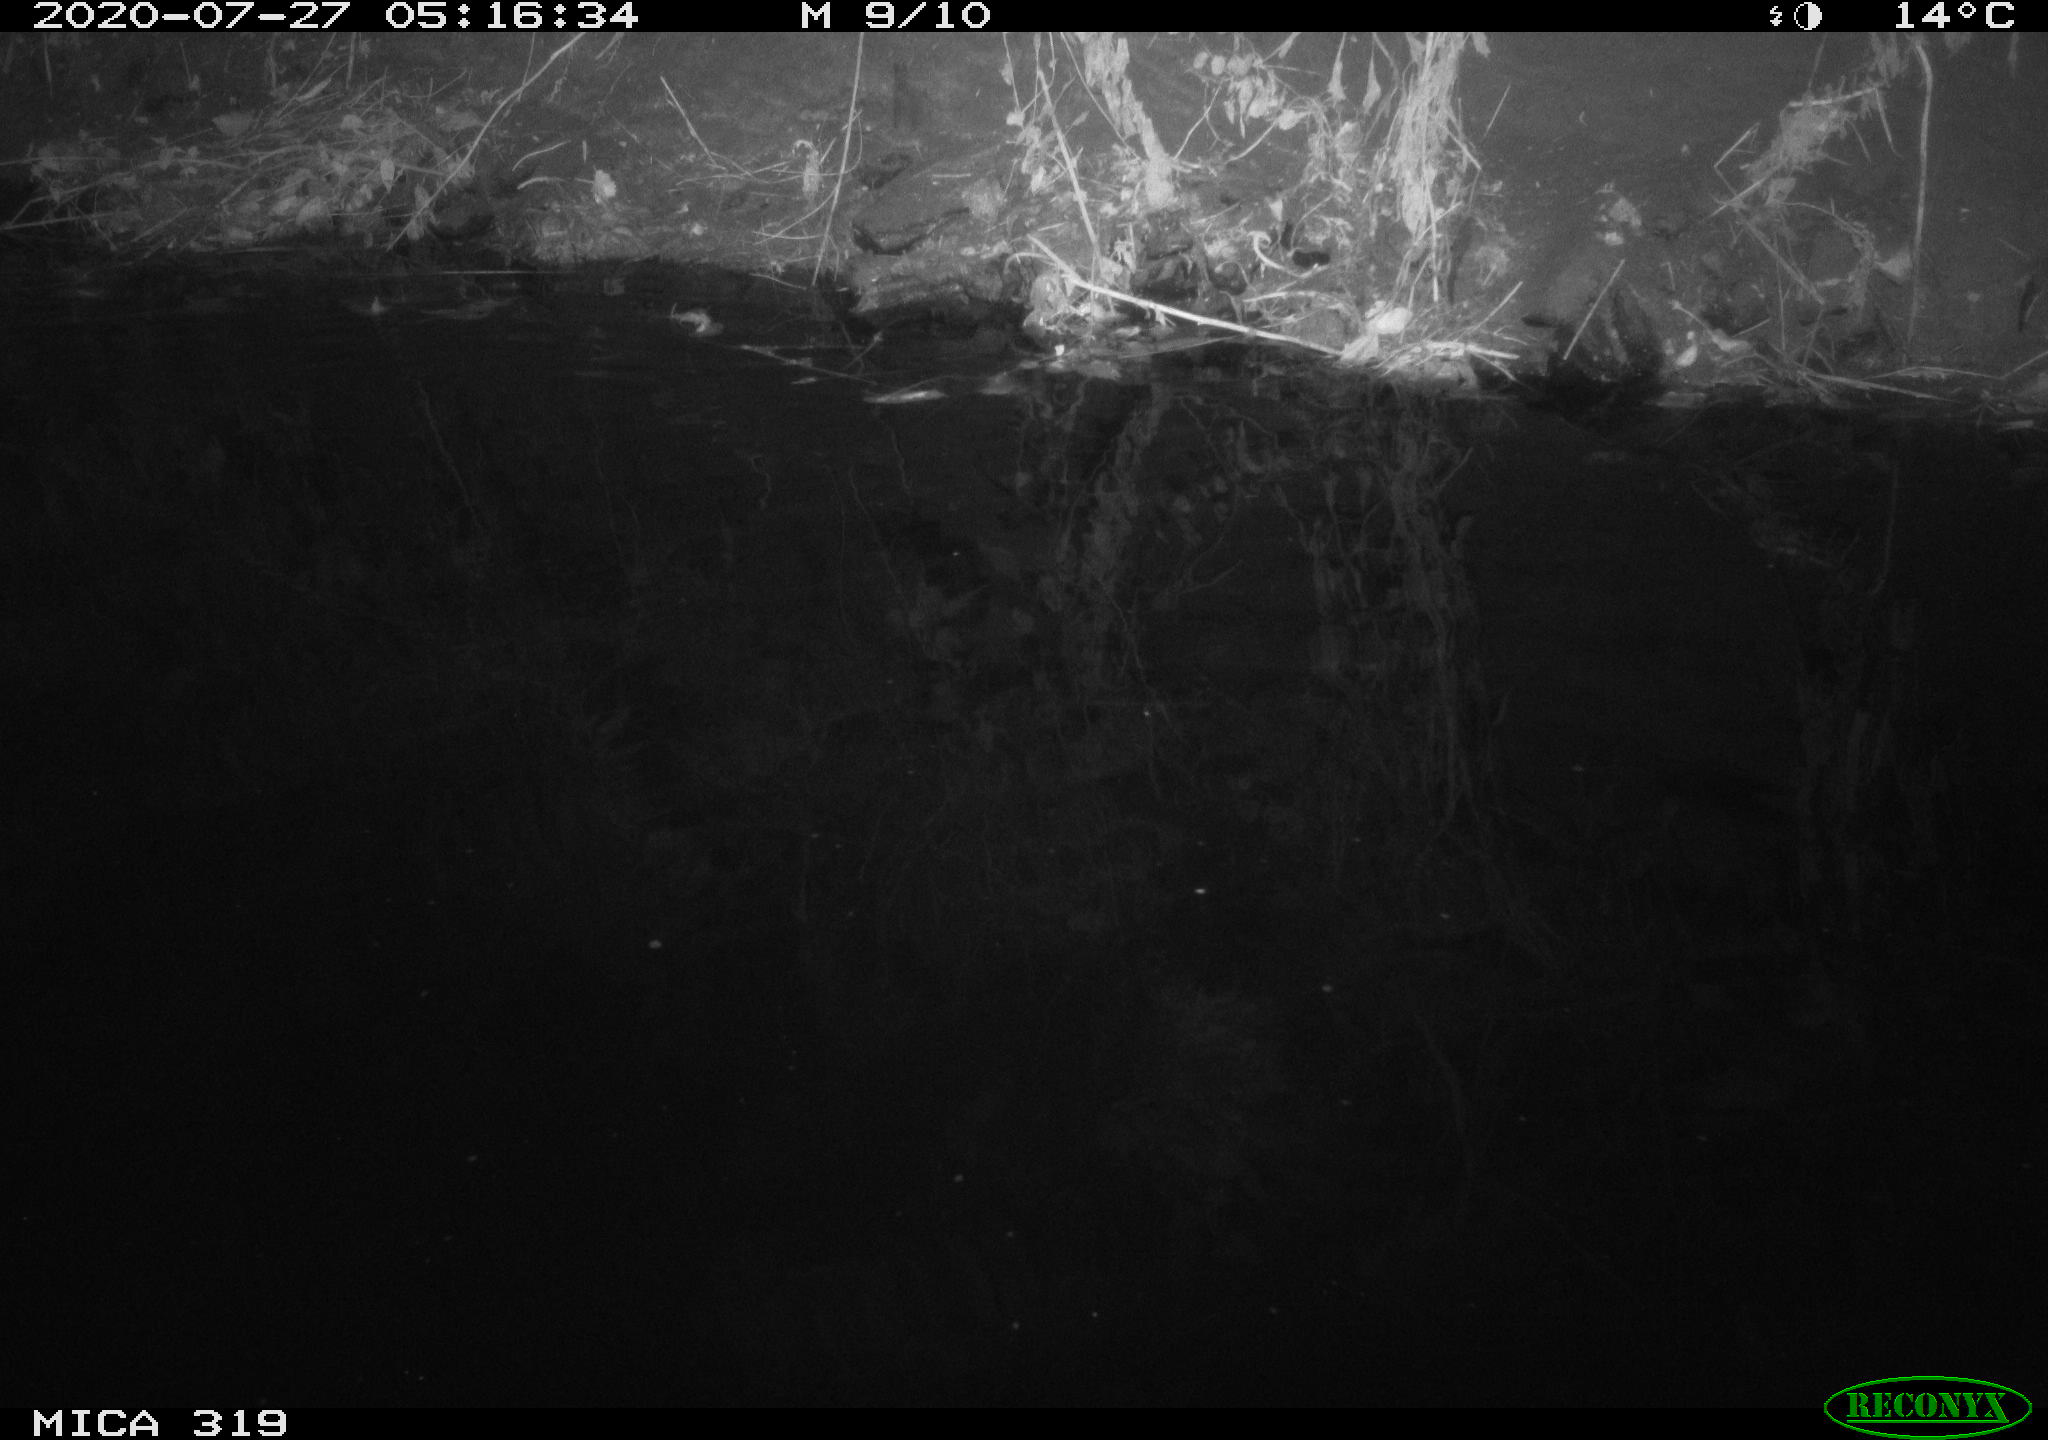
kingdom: Animalia
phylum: Chordata
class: Aves
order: Anseriformes
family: Anatidae
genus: Anas
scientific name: Anas platyrhynchos
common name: Mallard
